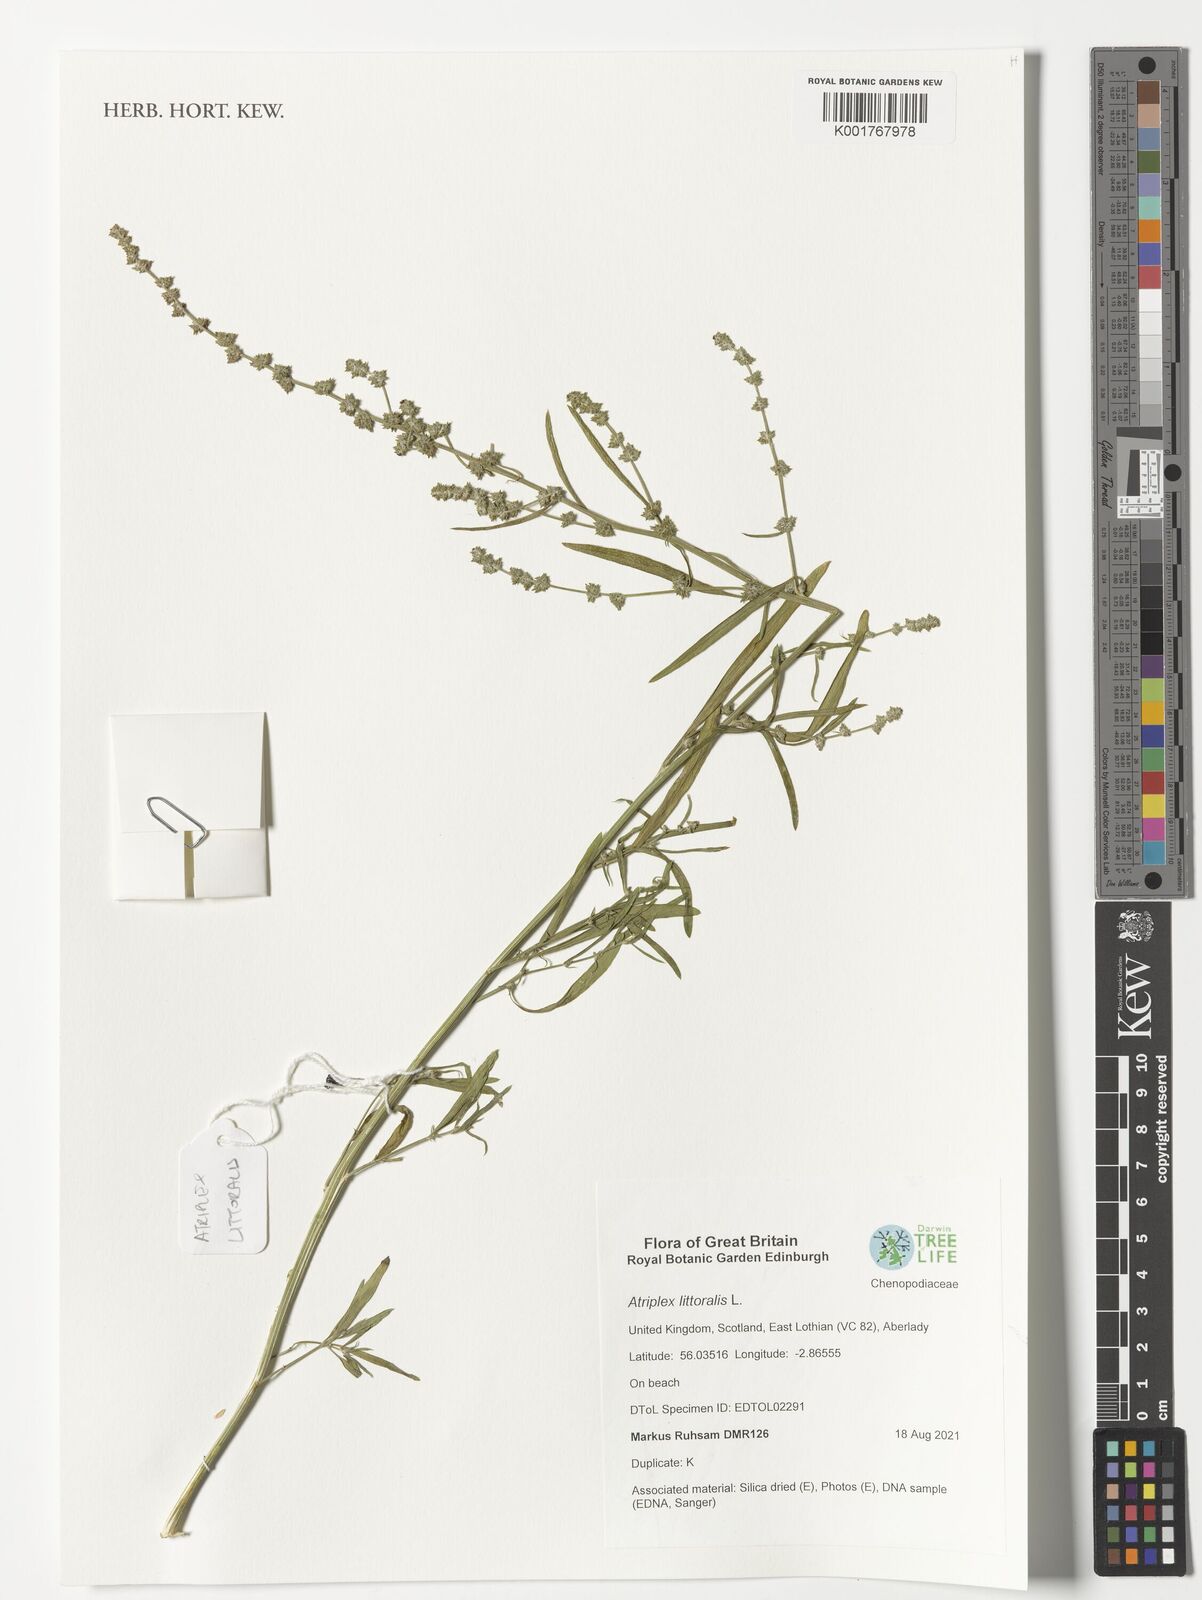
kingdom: Plantae
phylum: Tracheophyta
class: Magnoliopsida
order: Caryophyllales
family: Amaranthaceae
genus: Atriplex
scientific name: Atriplex littoralis
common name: Grass-leaved orache
